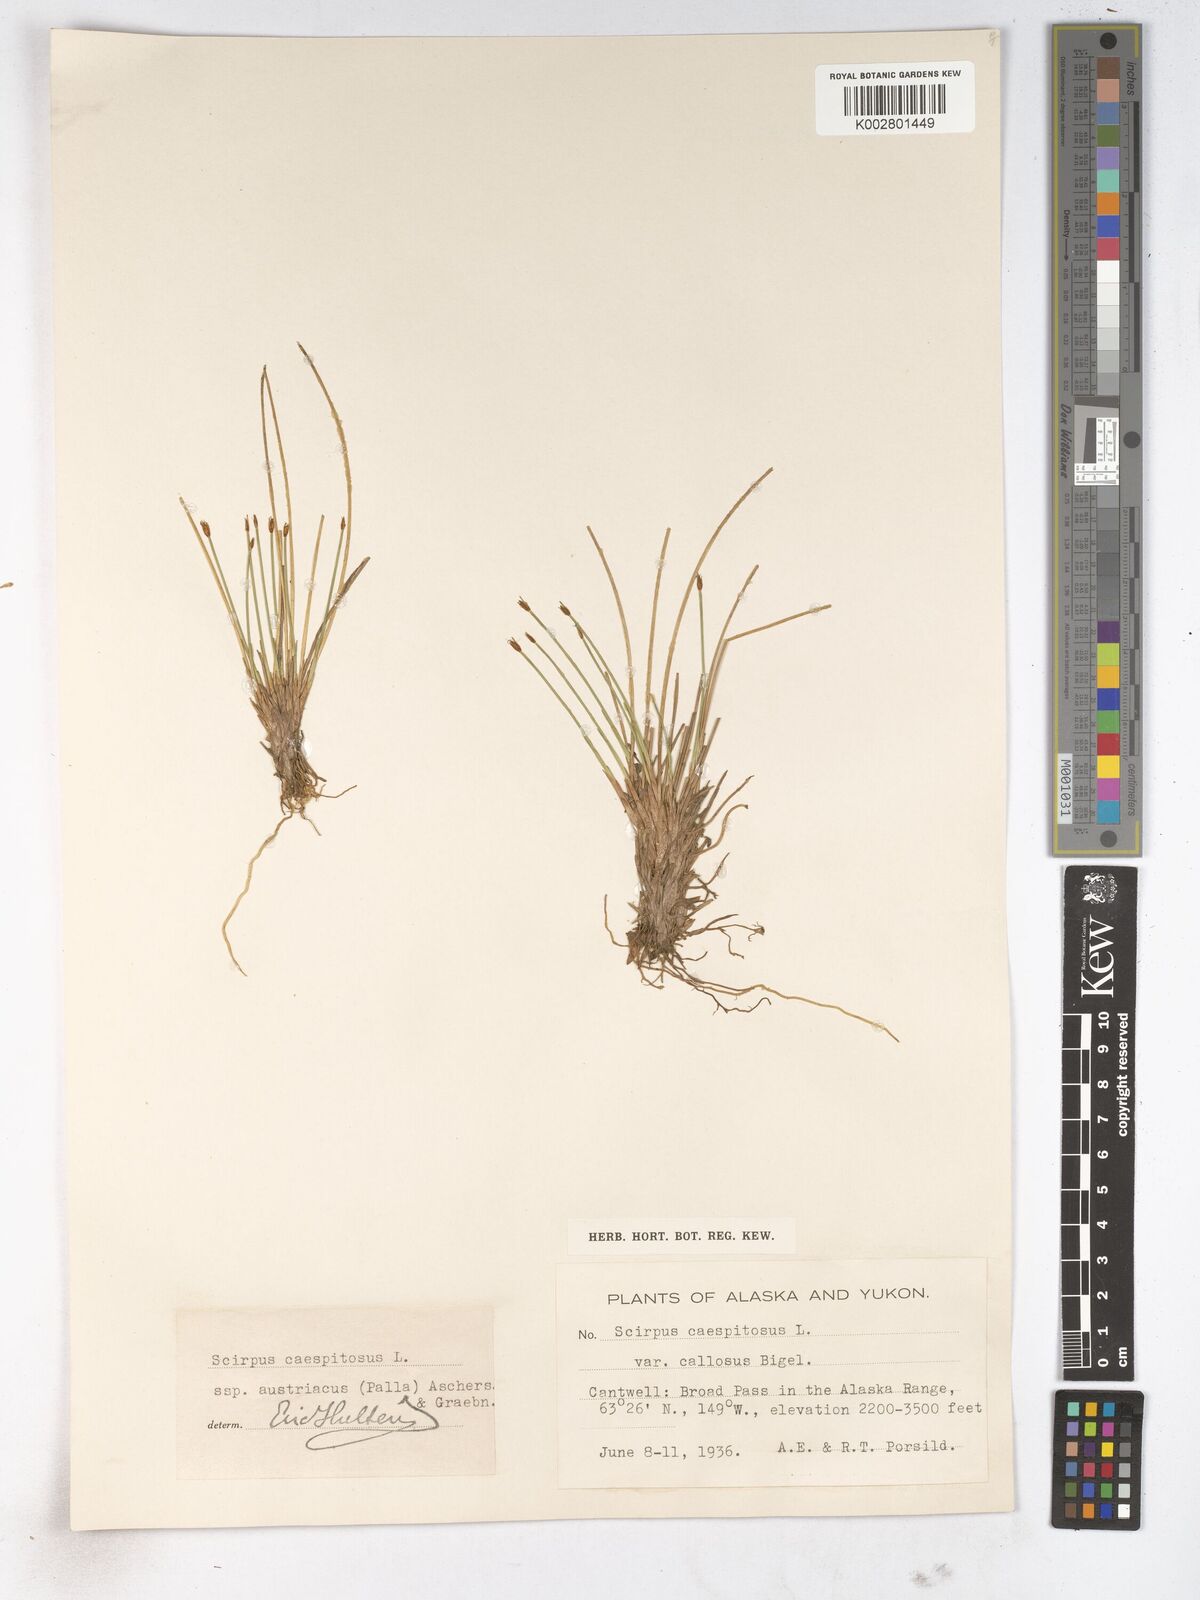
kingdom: Plantae
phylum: Tracheophyta
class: Liliopsida
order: Poales
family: Cyperaceae
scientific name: Cyperaceae
